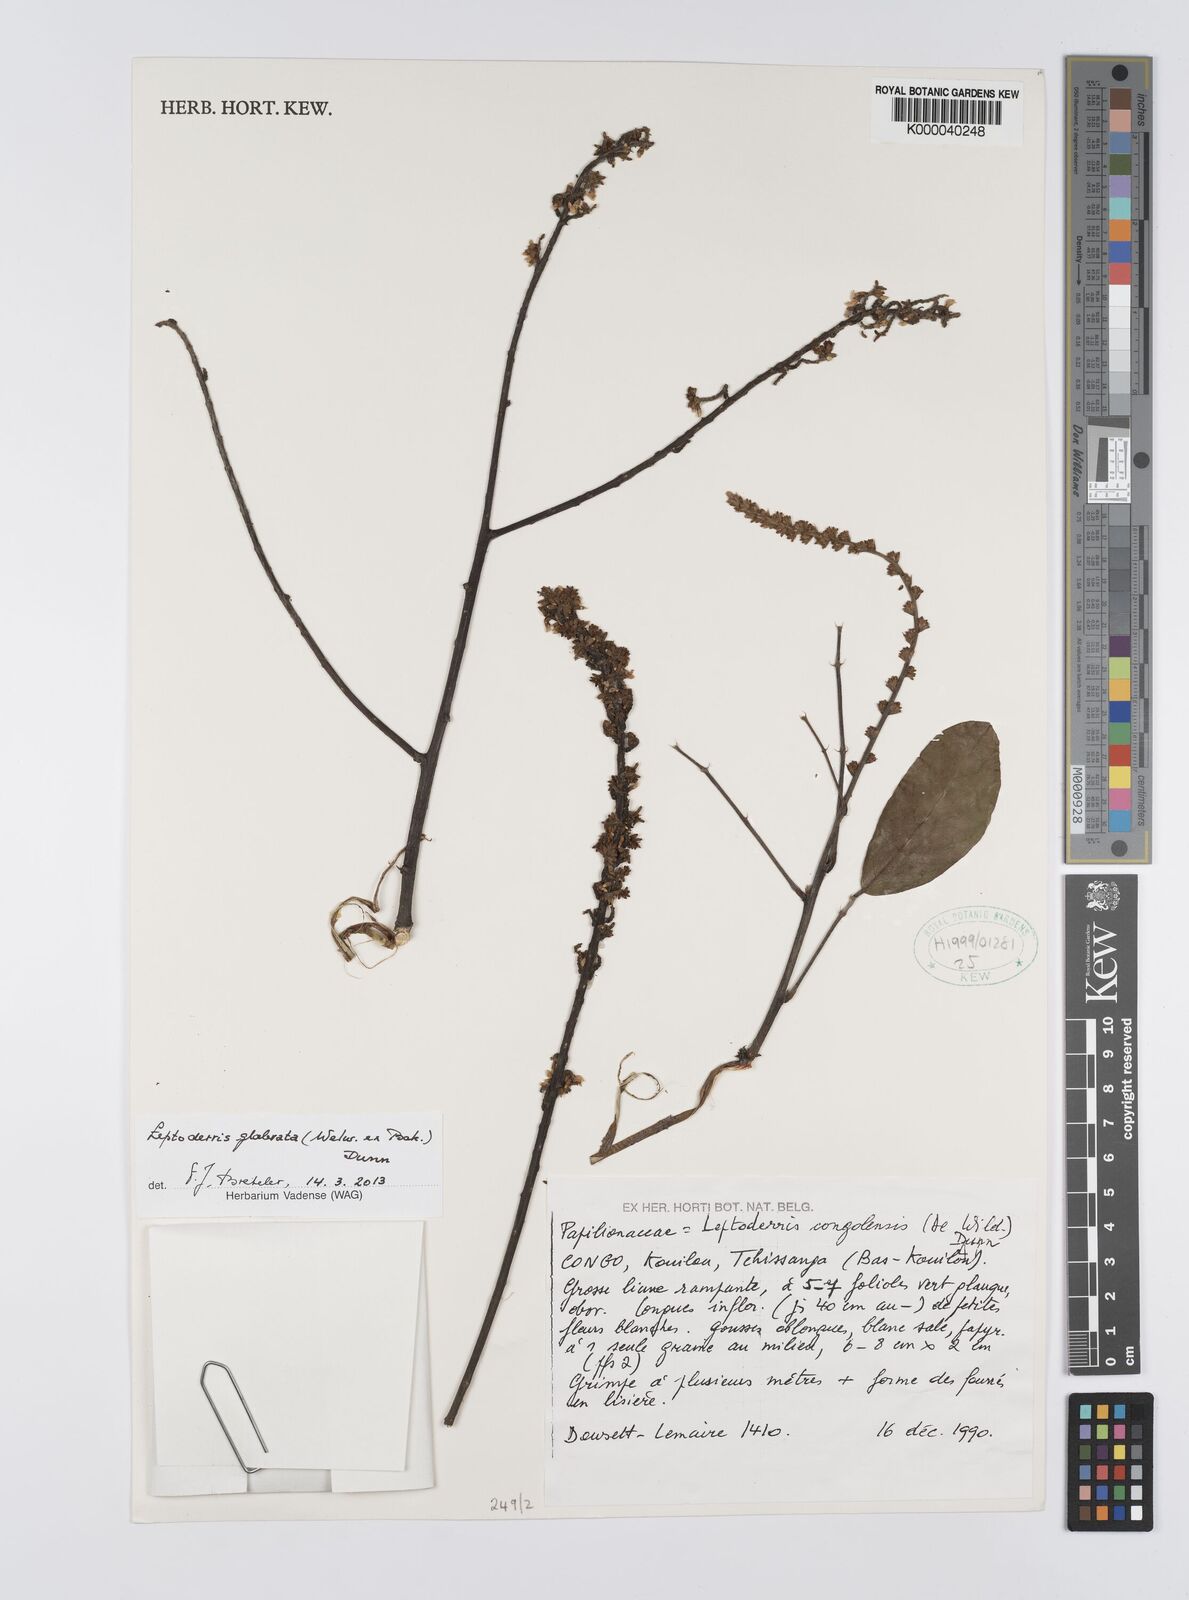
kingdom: Plantae
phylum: Tracheophyta
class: Magnoliopsida
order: Fabales
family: Fabaceae
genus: Leptoderris
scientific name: Leptoderris congolensis
